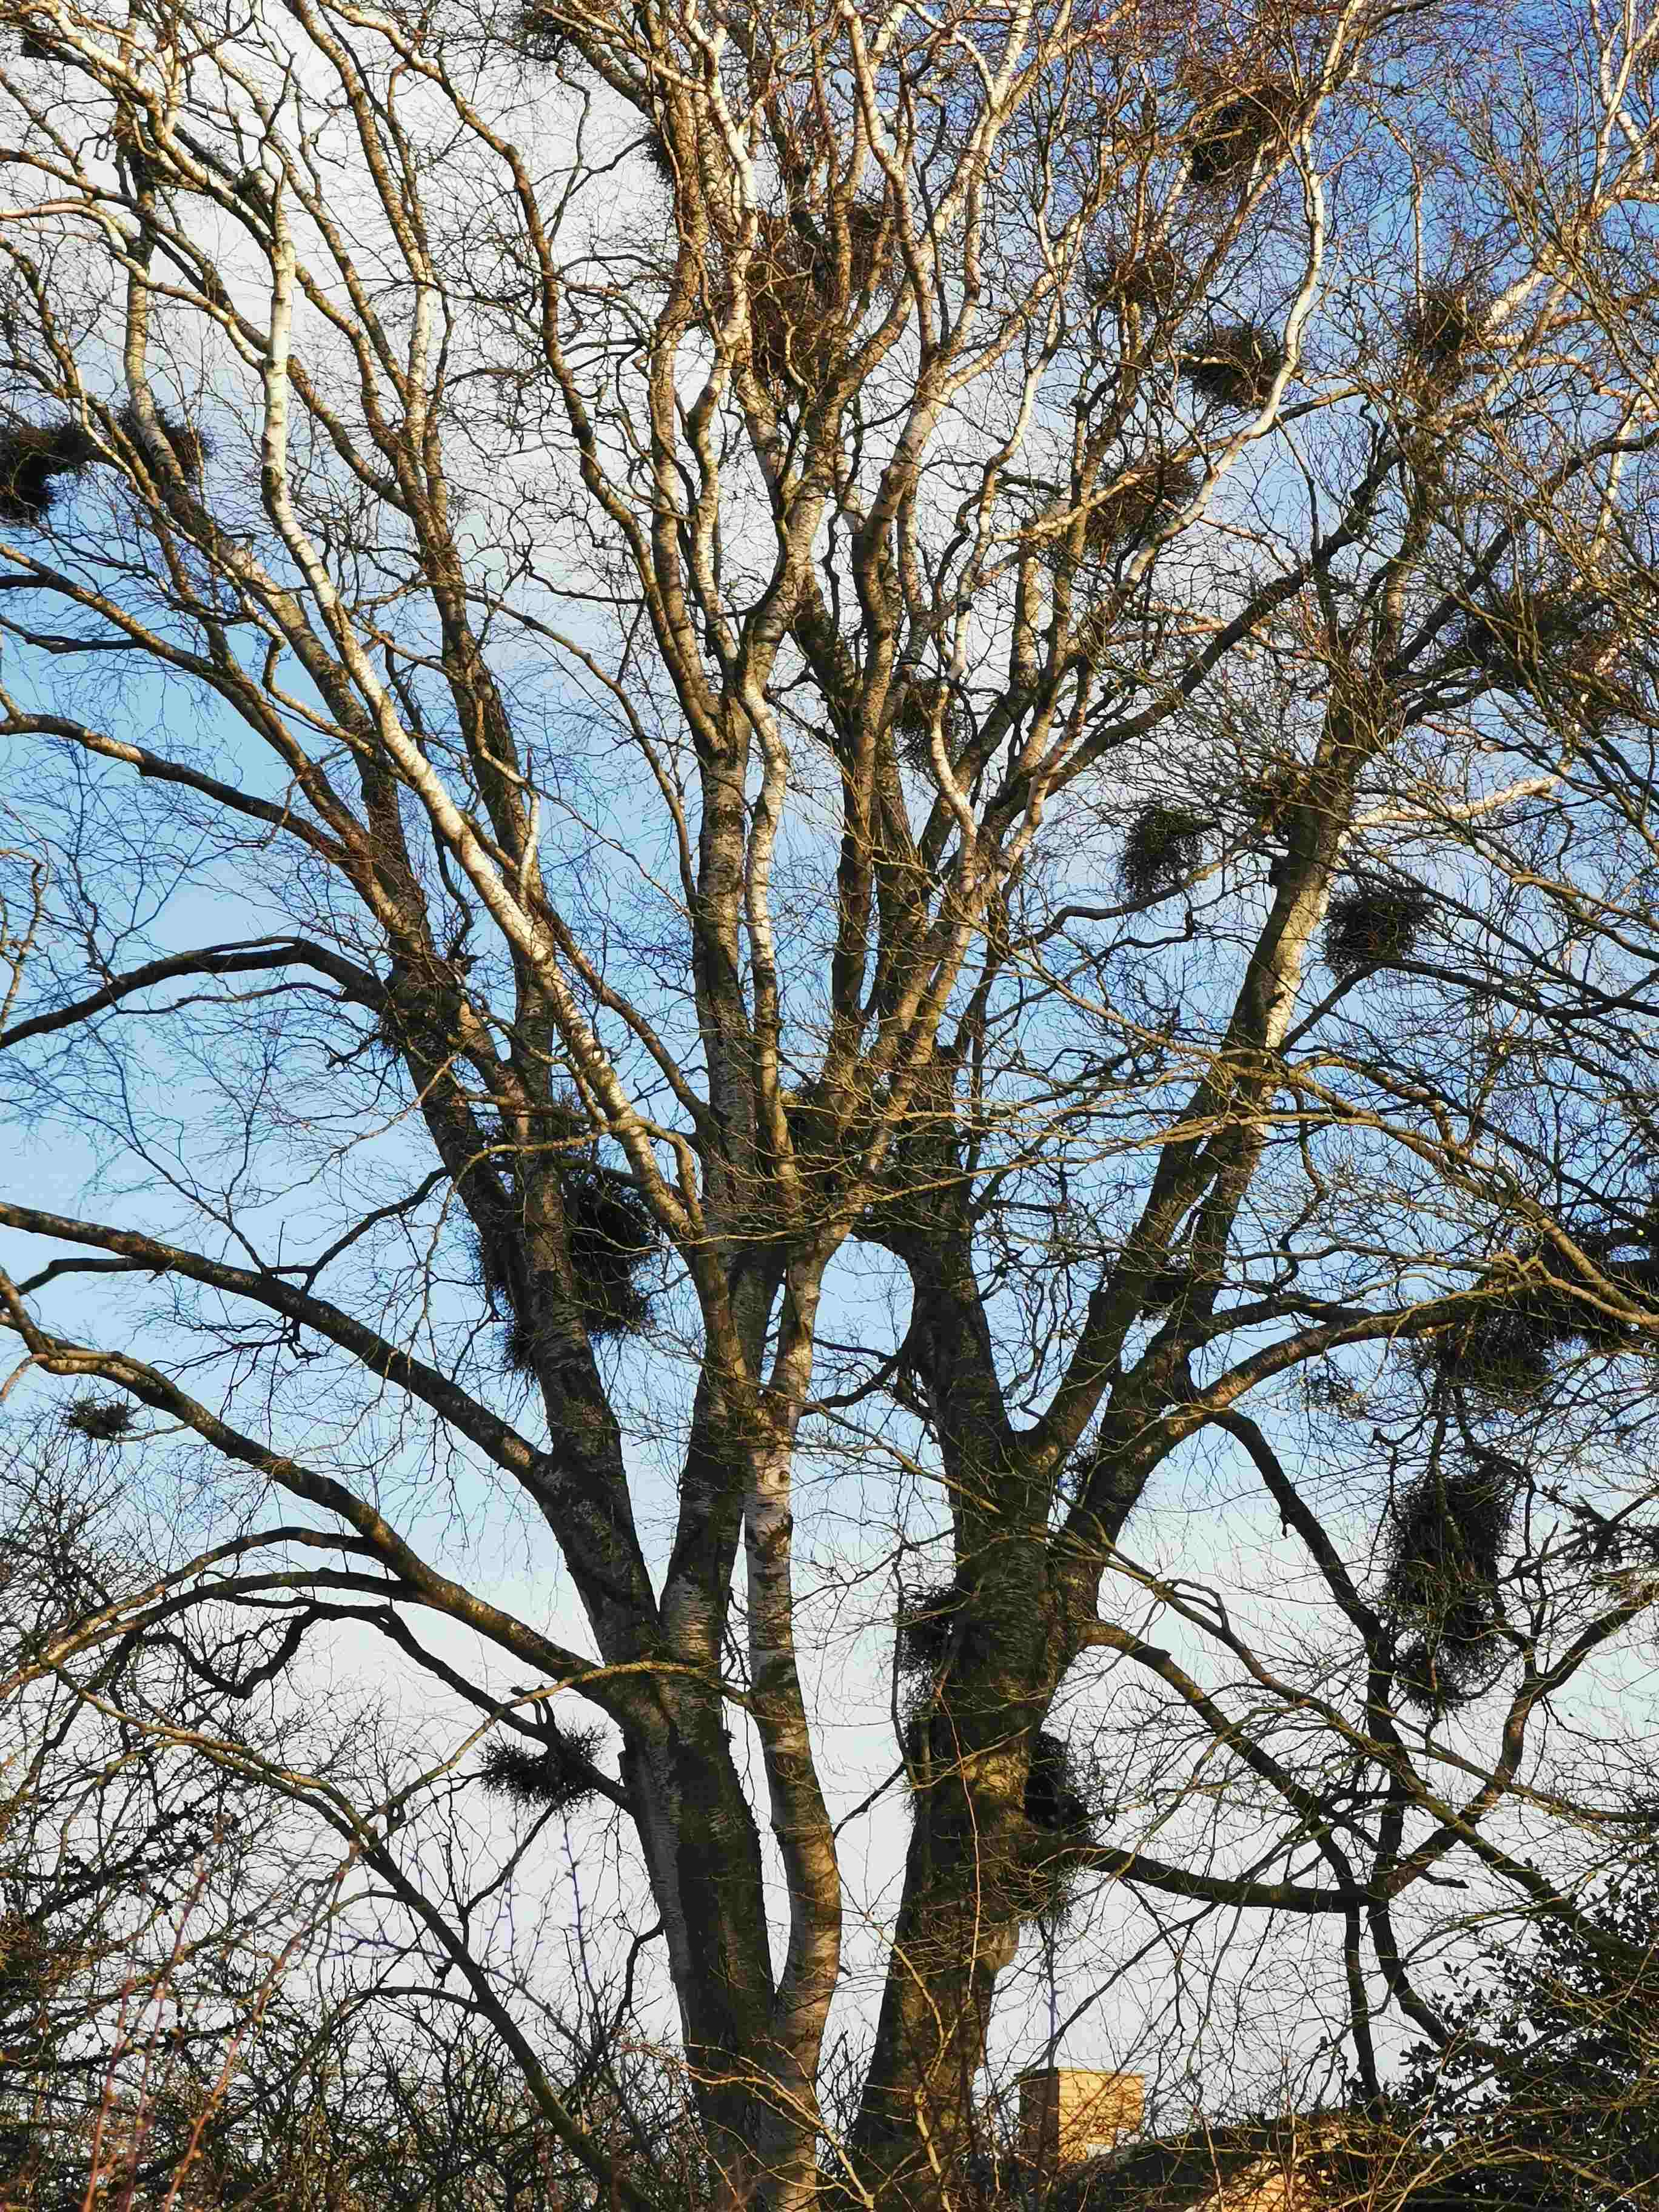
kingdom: Fungi
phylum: Ascomycota
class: Taphrinomycetes
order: Taphrinales
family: Taphrinaceae
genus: Taphrina
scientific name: Taphrina betulina
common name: hekse-sækdug
